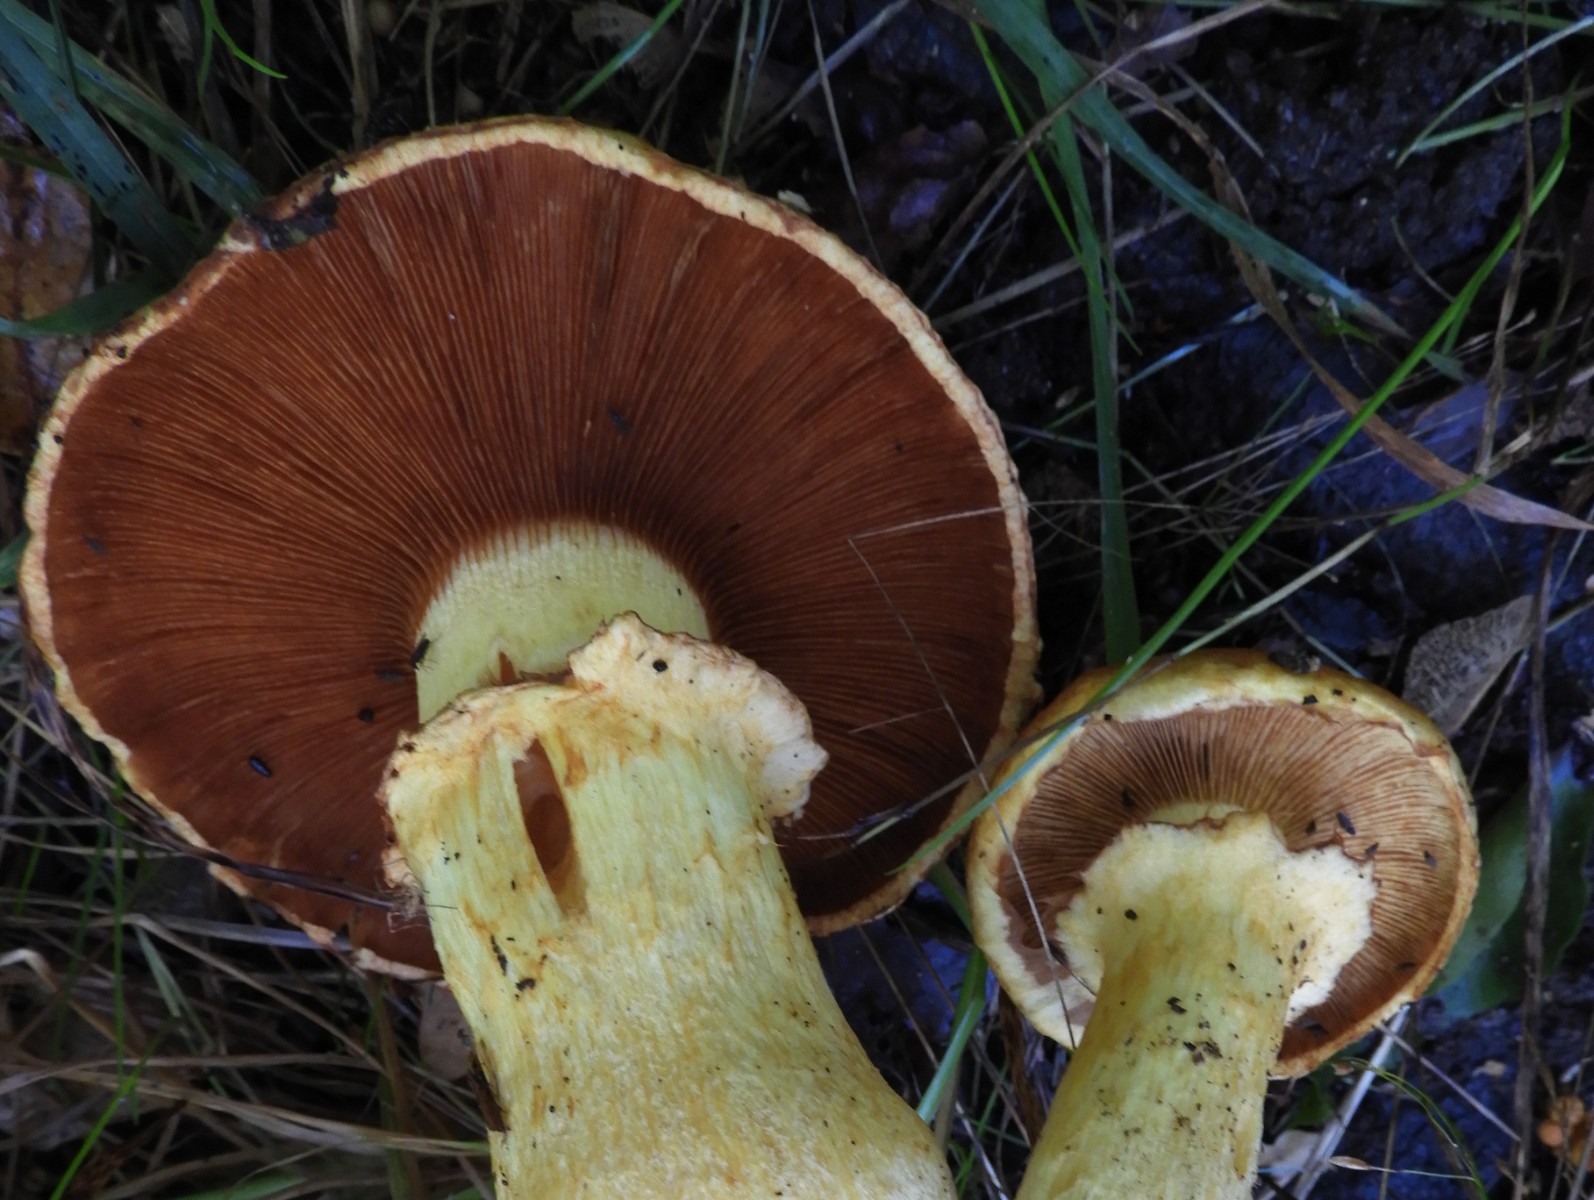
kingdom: Fungi
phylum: Basidiomycota
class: Agaricomycetes
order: Agaricales
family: Hymenogastraceae
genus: Gymnopilus
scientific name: Gymnopilus spectabilis
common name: fibret flammehat
